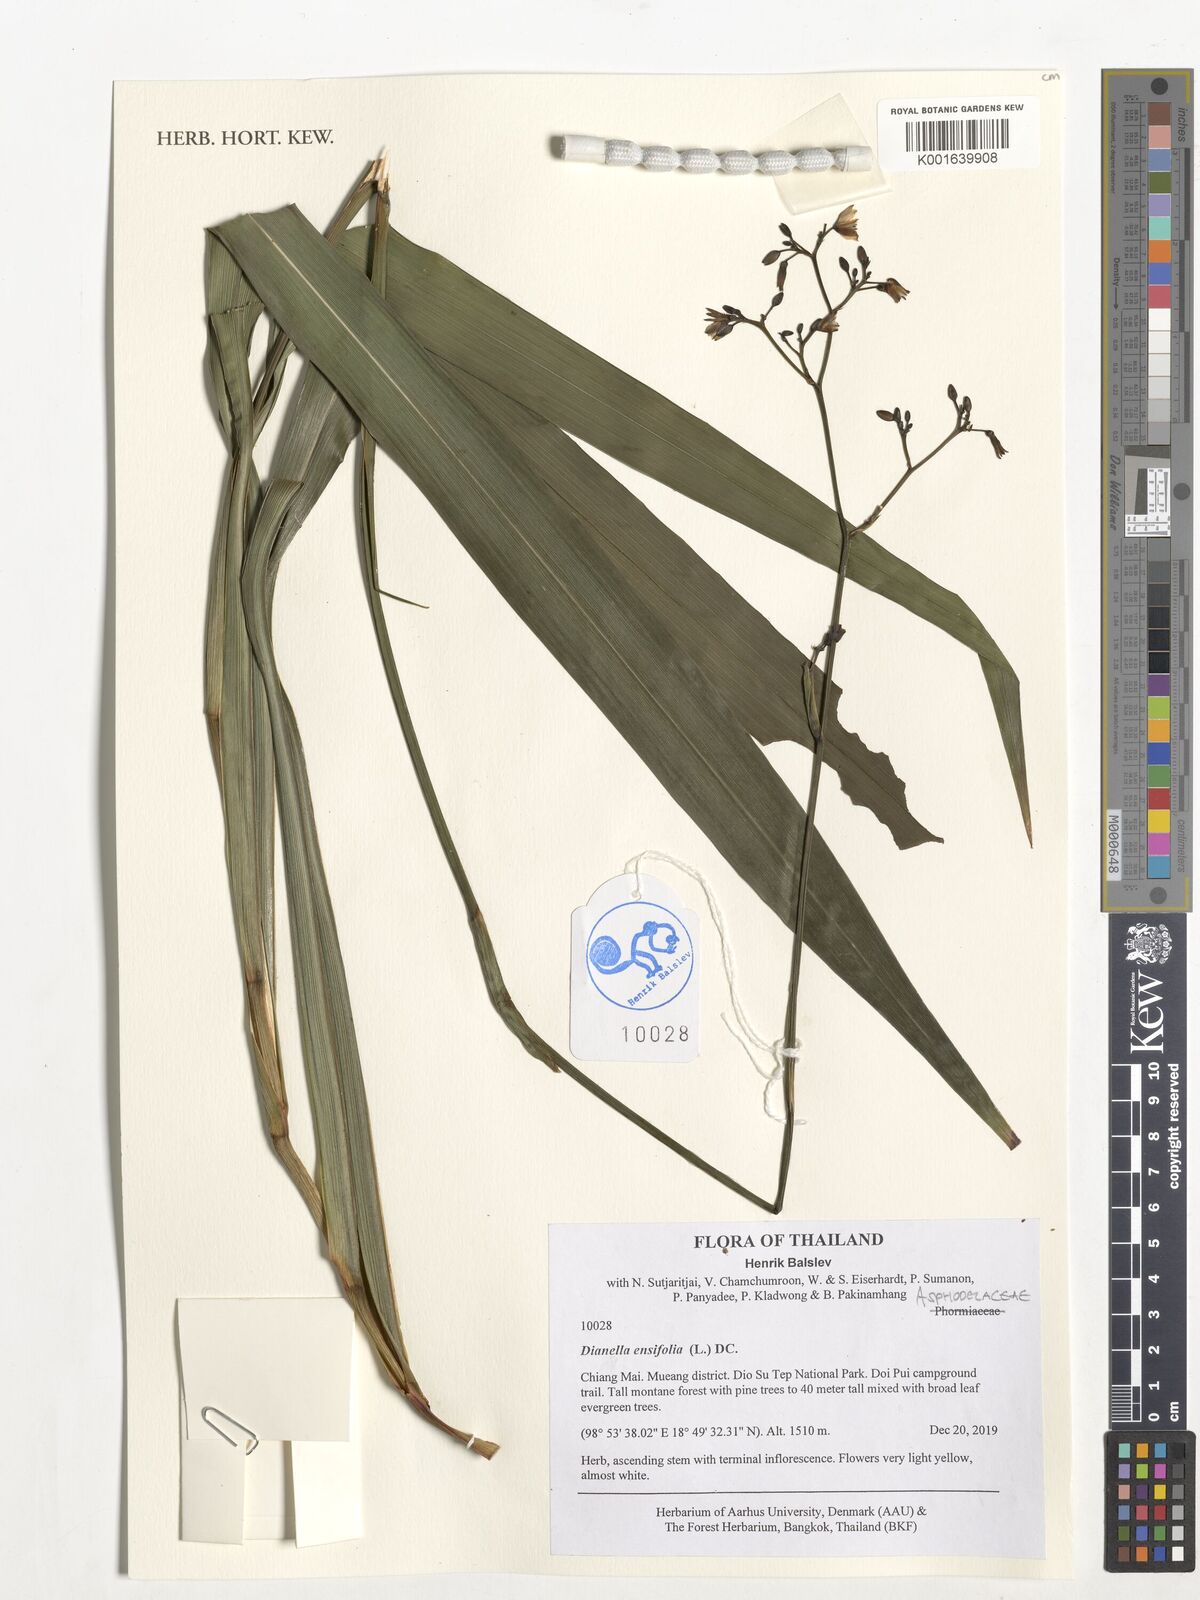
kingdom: Plantae
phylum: Tracheophyta
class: Liliopsida
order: Asparagales
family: Asphodelaceae
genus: Dianella
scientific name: Dianella ensifolia
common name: New zealand lilyplant
